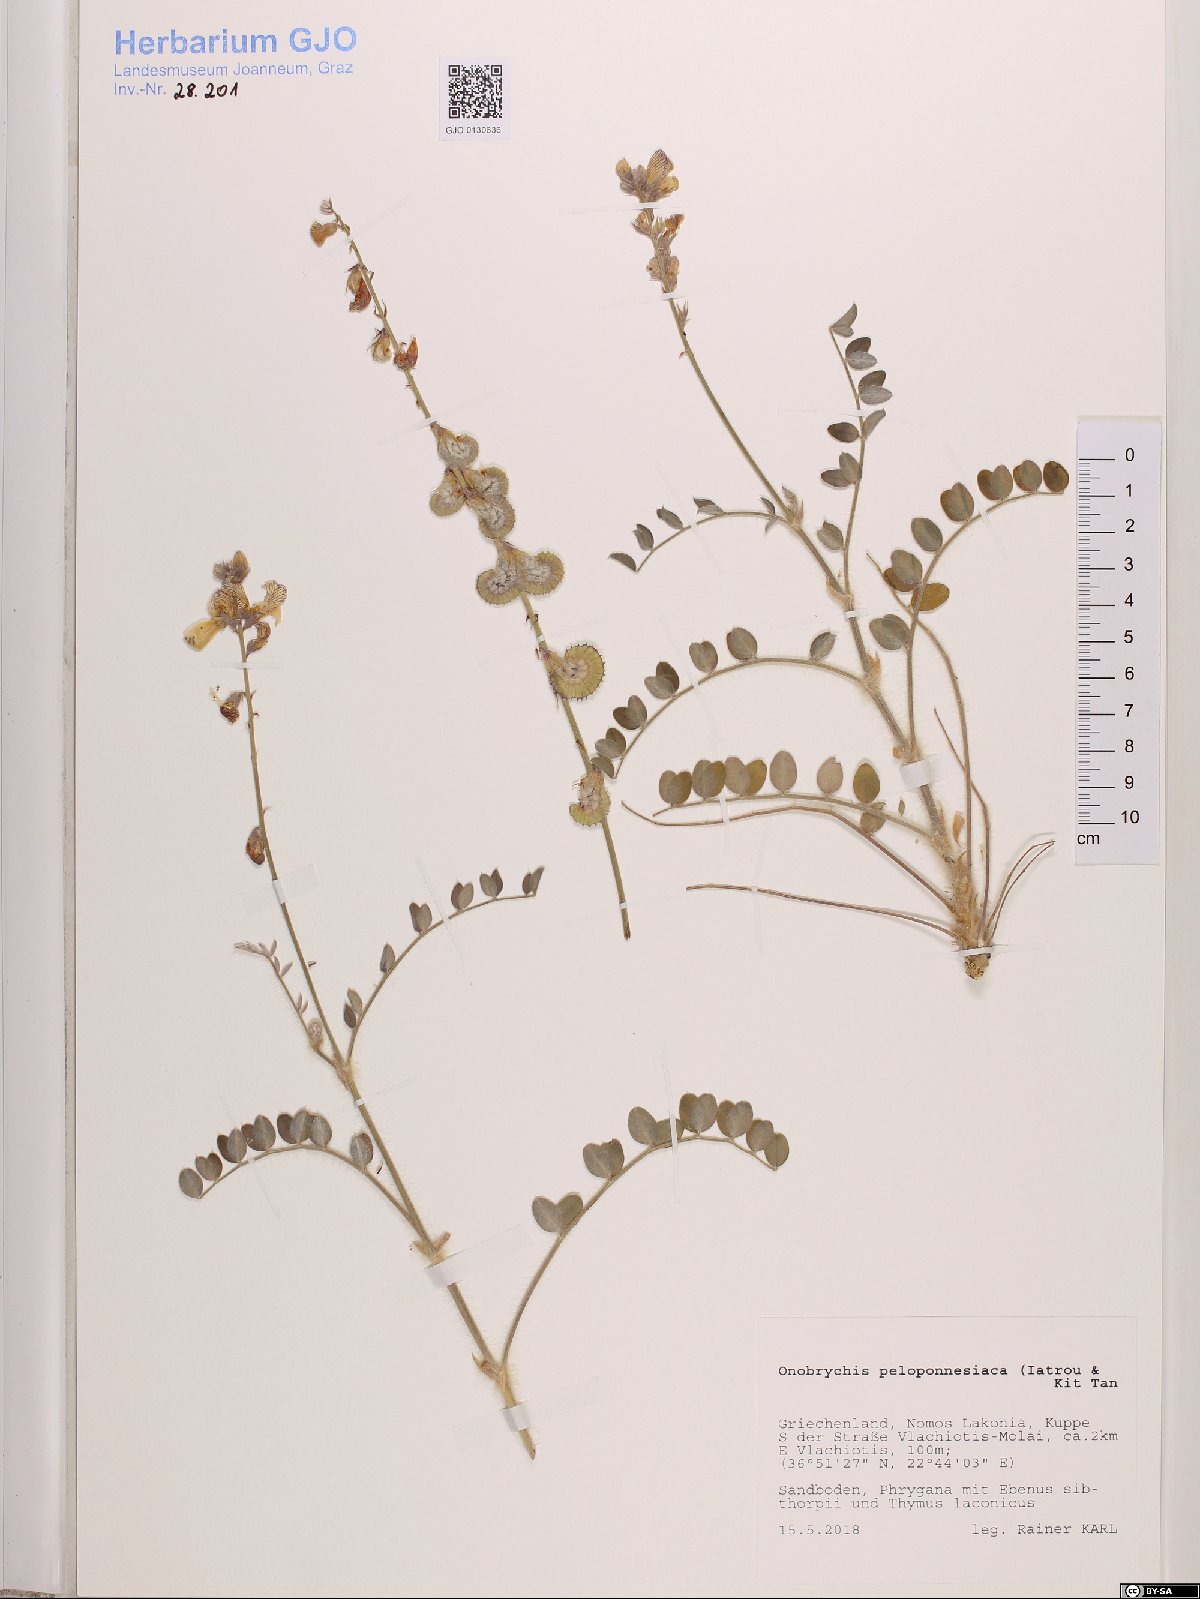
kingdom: Plantae
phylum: Tracheophyta
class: Magnoliopsida
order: Fabales
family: Fabaceae
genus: Onobrychis
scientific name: Onobrychis peloponnesiaca
